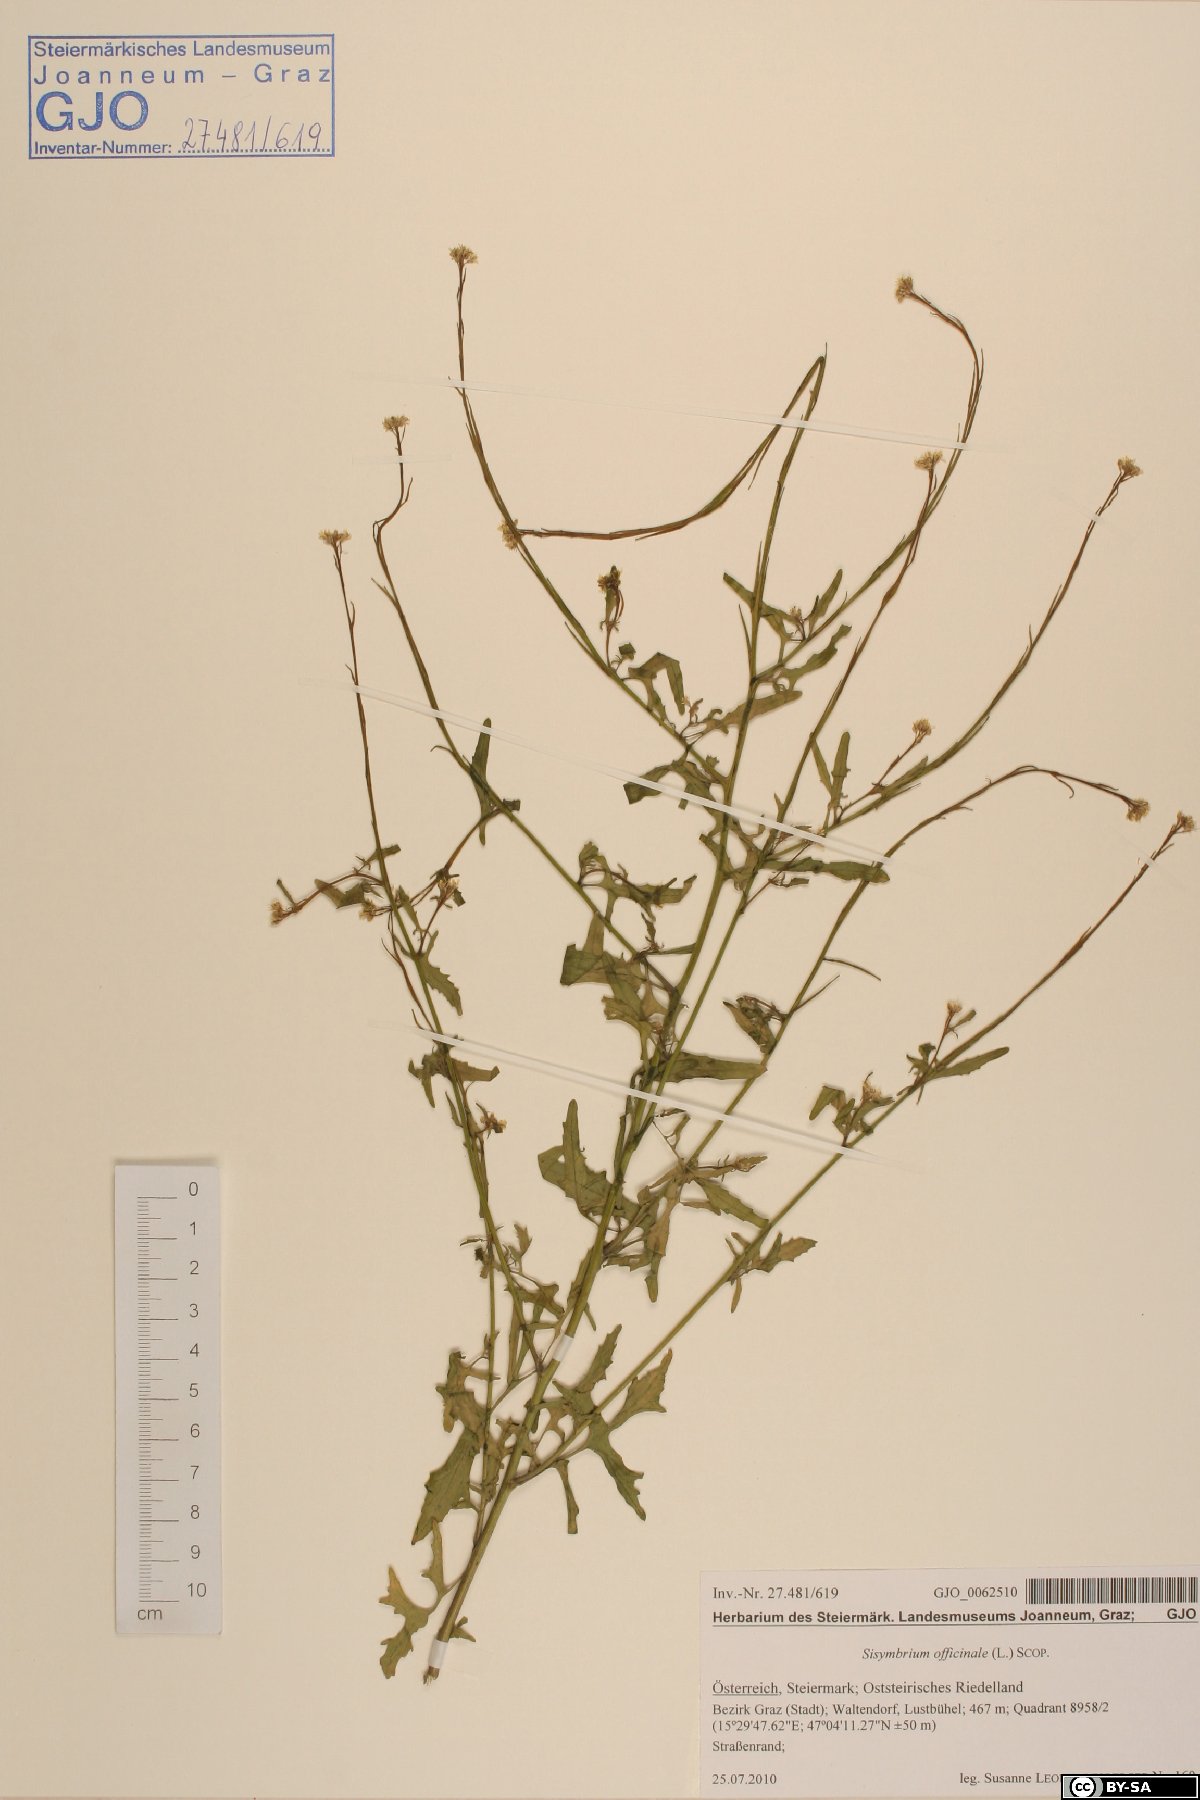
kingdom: Plantae
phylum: Tracheophyta
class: Magnoliopsida
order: Brassicales
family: Brassicaceae
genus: Sisymbrium
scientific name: Sisymbrium officinale
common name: Hedge mustard
